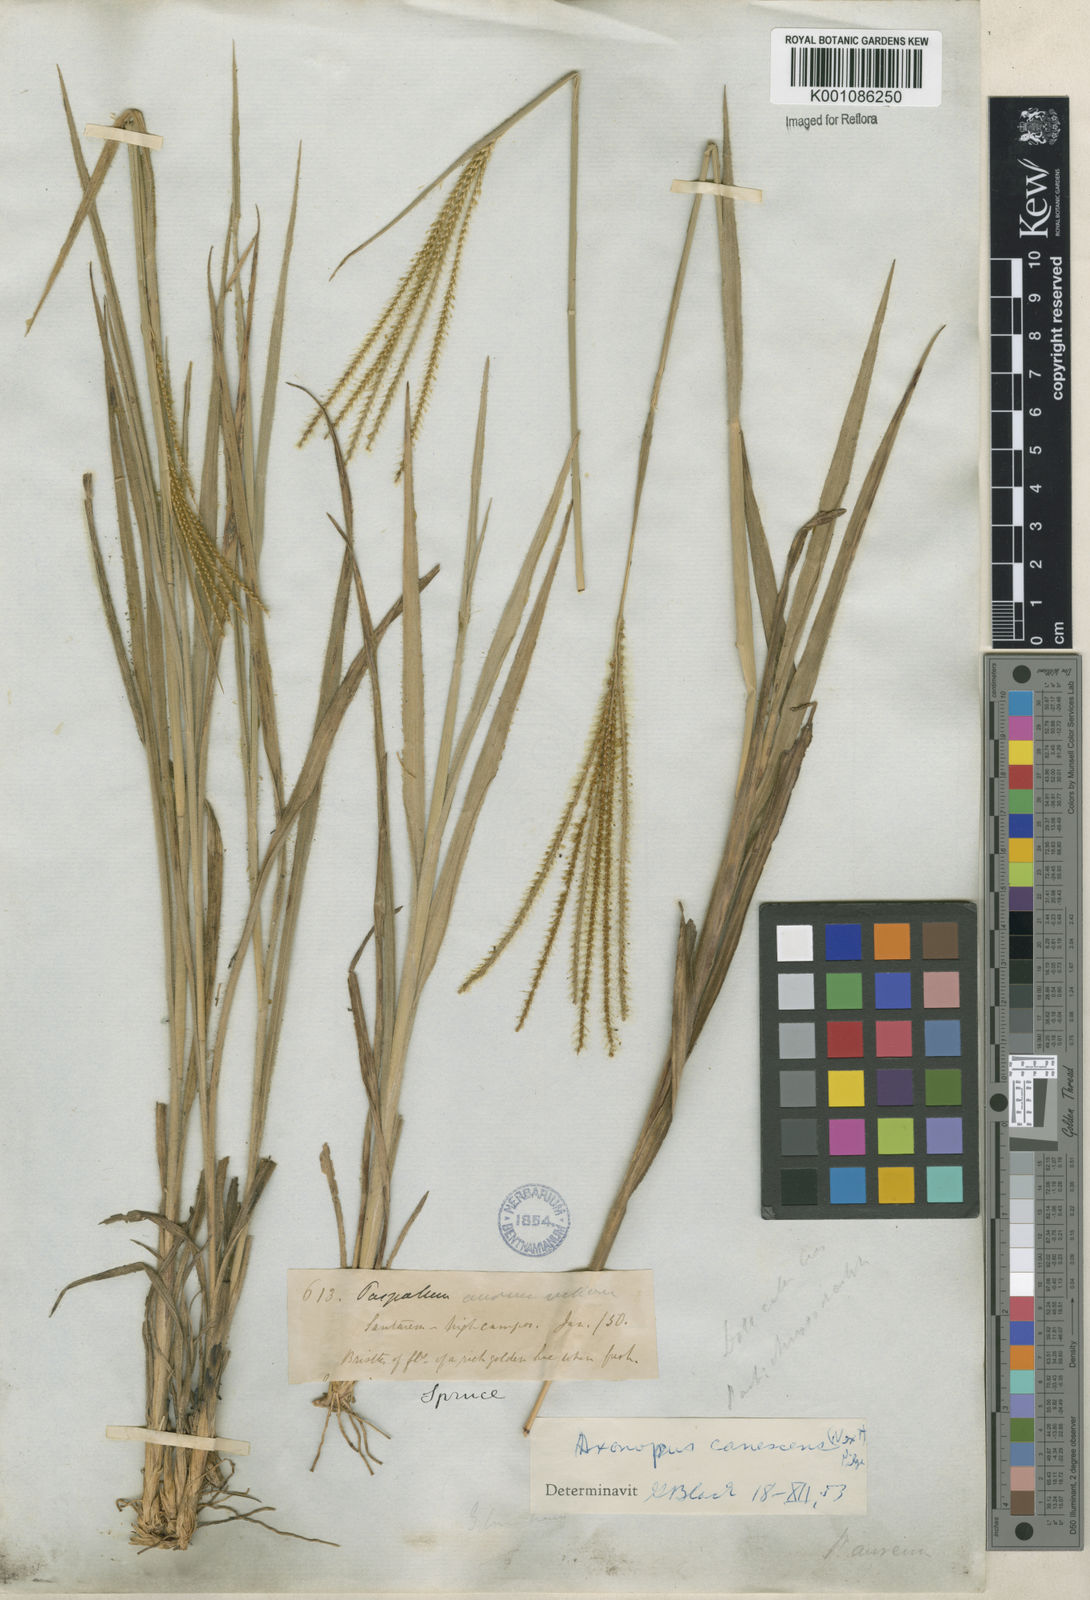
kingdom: Plantae
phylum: Tracheophyta
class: Liliopsida
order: Poales
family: Poaceae
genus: Axonopus
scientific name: Axonopus aureus
